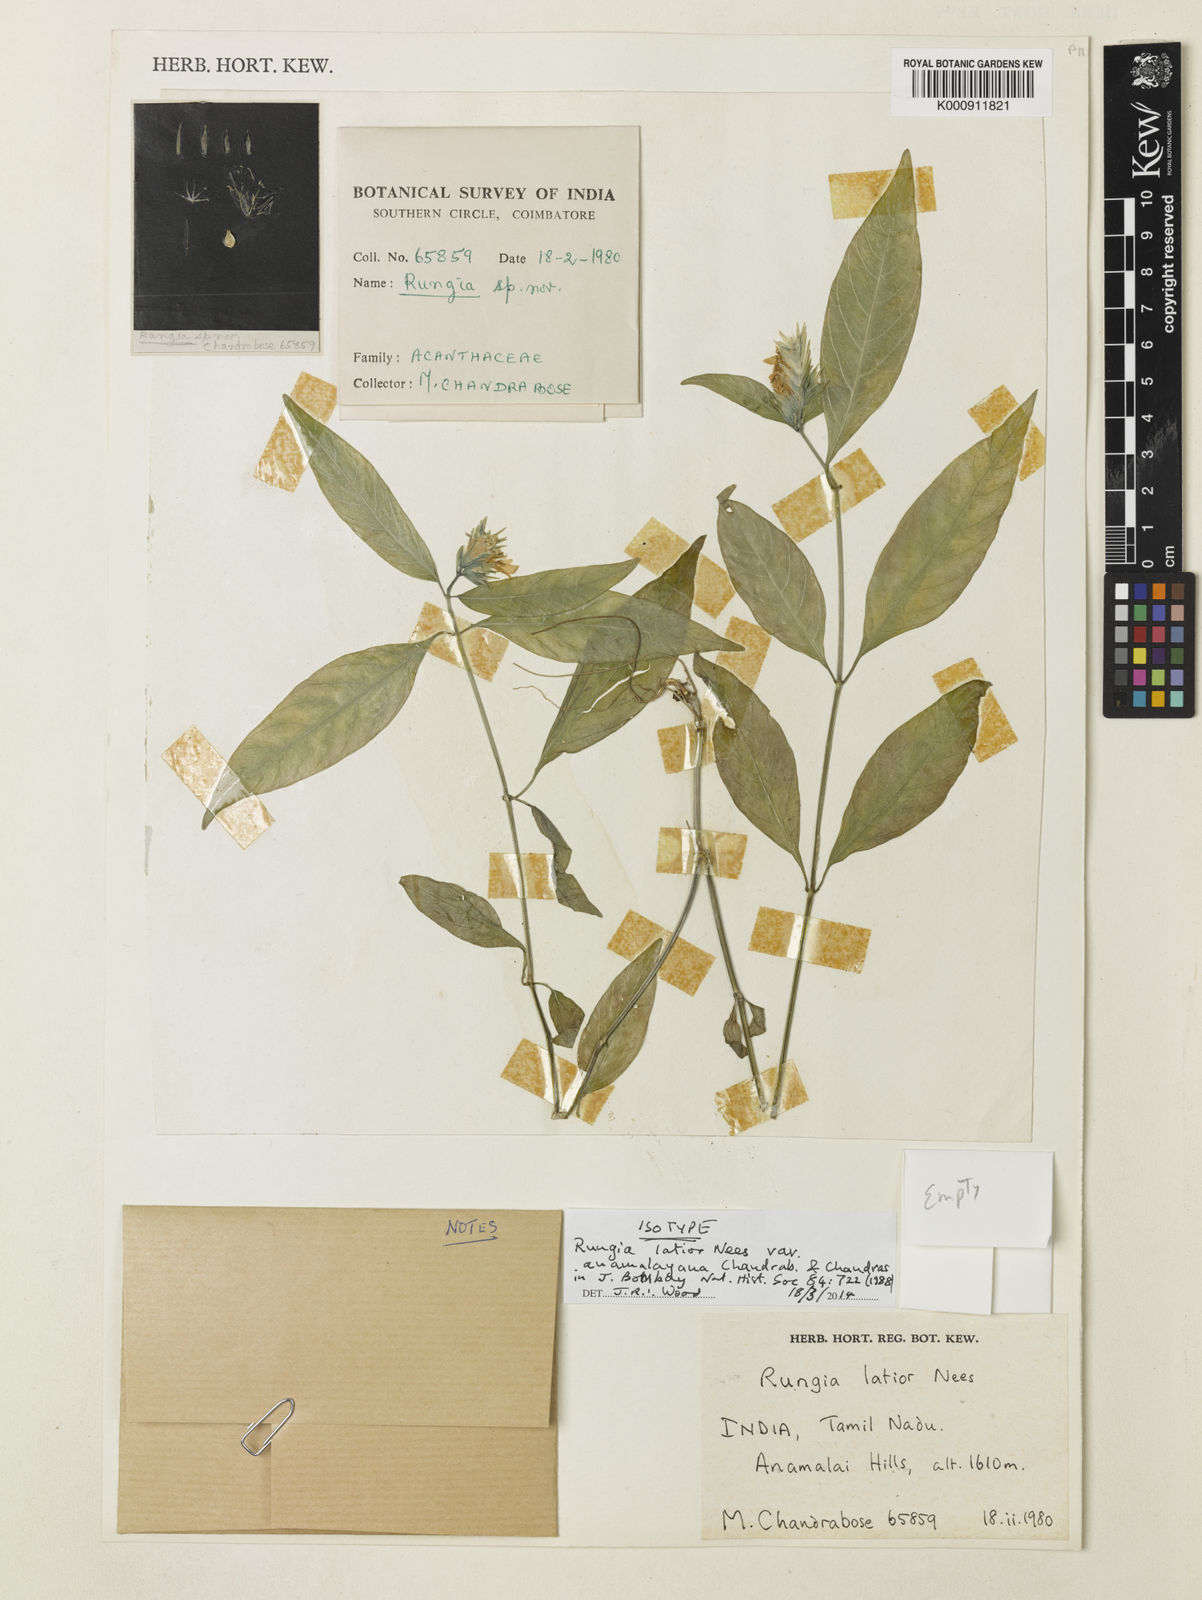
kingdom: Plantae
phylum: Tracheophyta
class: Magnoliopsida
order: Lamiales
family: Acanthaceae
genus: Rungia
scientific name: Rungia anamalayana
